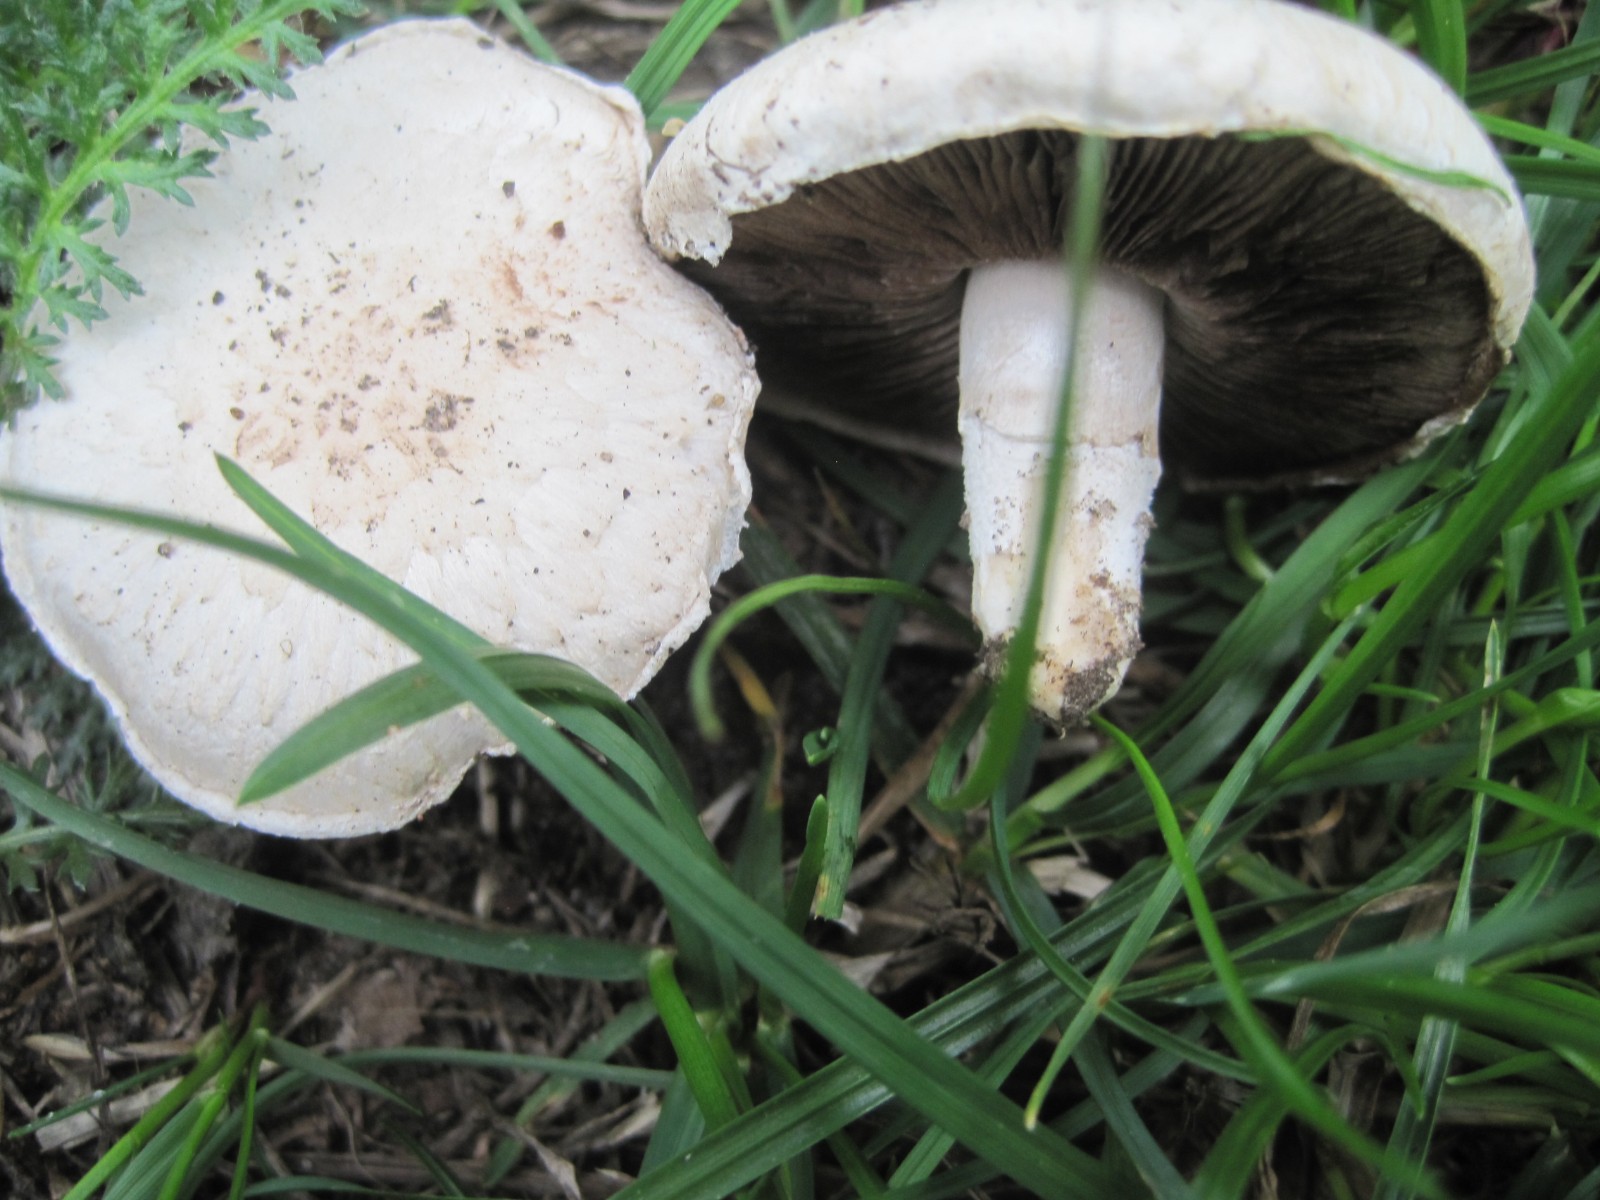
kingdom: Fungi
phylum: Basidiomycota
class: Agaricomycetes
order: Agaricales
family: Agaricaceae
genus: Agaricus
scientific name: Agaricus campestris
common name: mark-champignon
